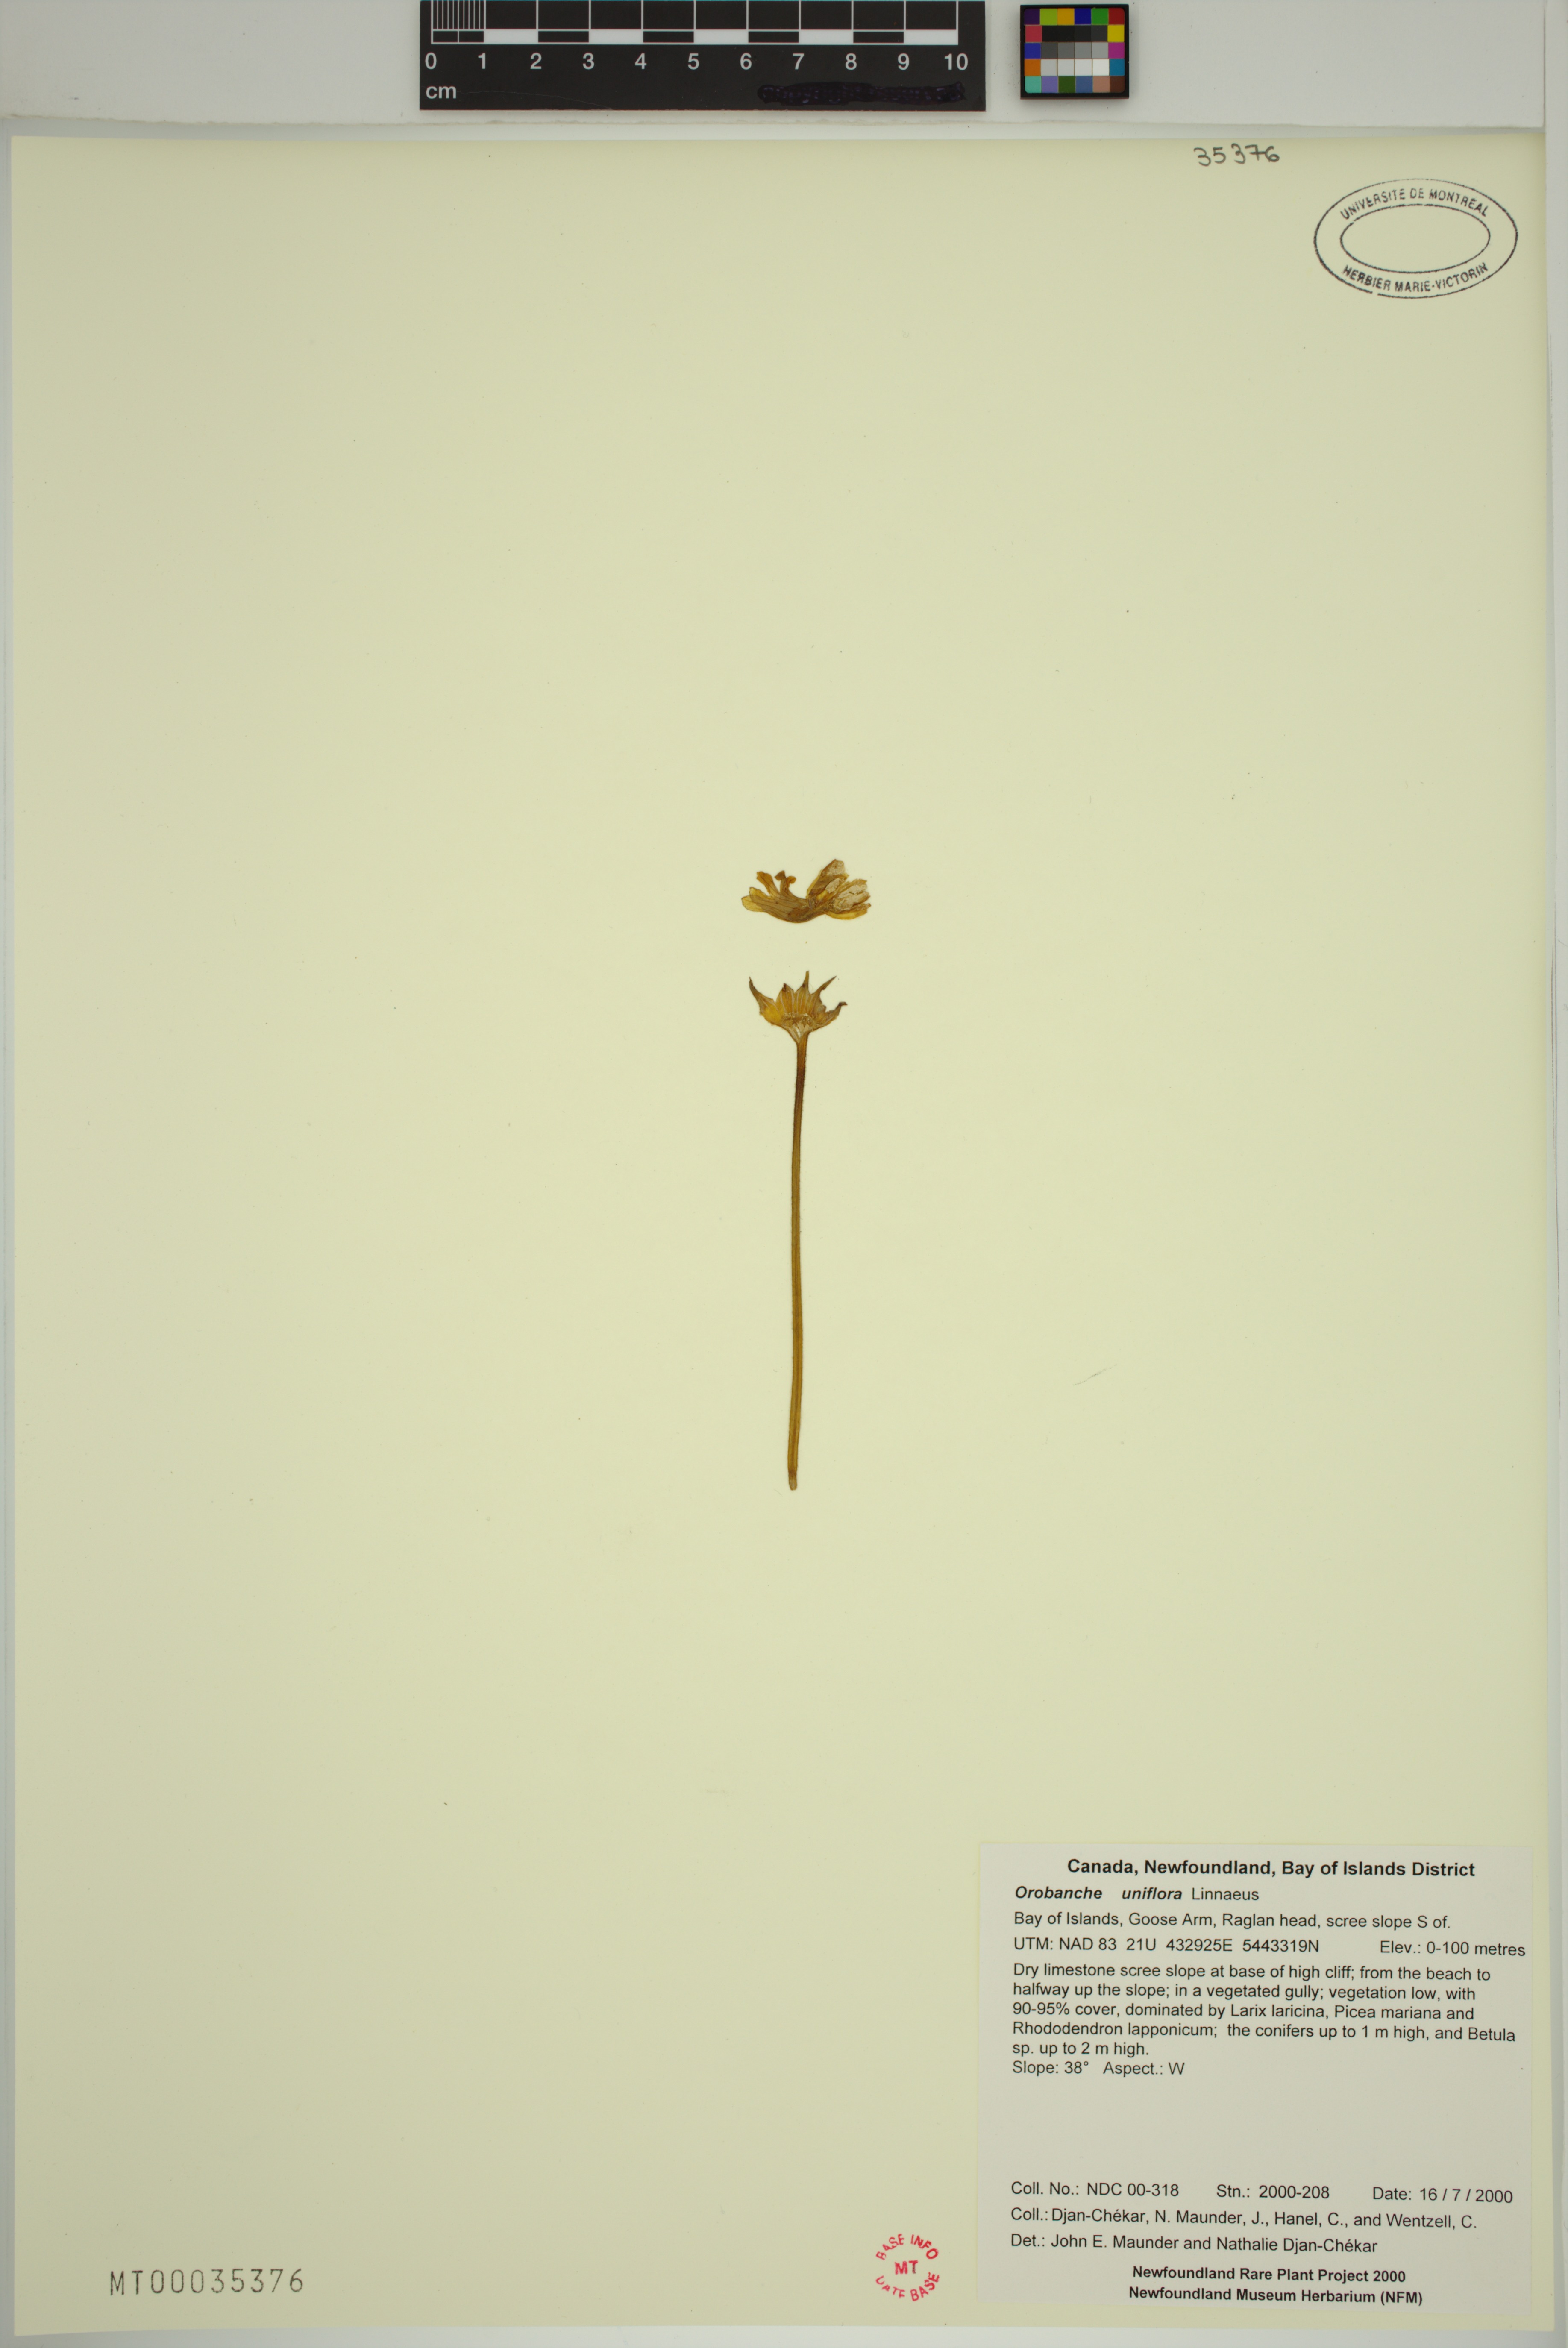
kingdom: Plantae
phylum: Tracheophyta
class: Magnoliopsida
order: Lamiales
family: Orobanchaceae
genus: Aphyllon
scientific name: Aphyllon uniflorum
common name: One-flowered broomrape
